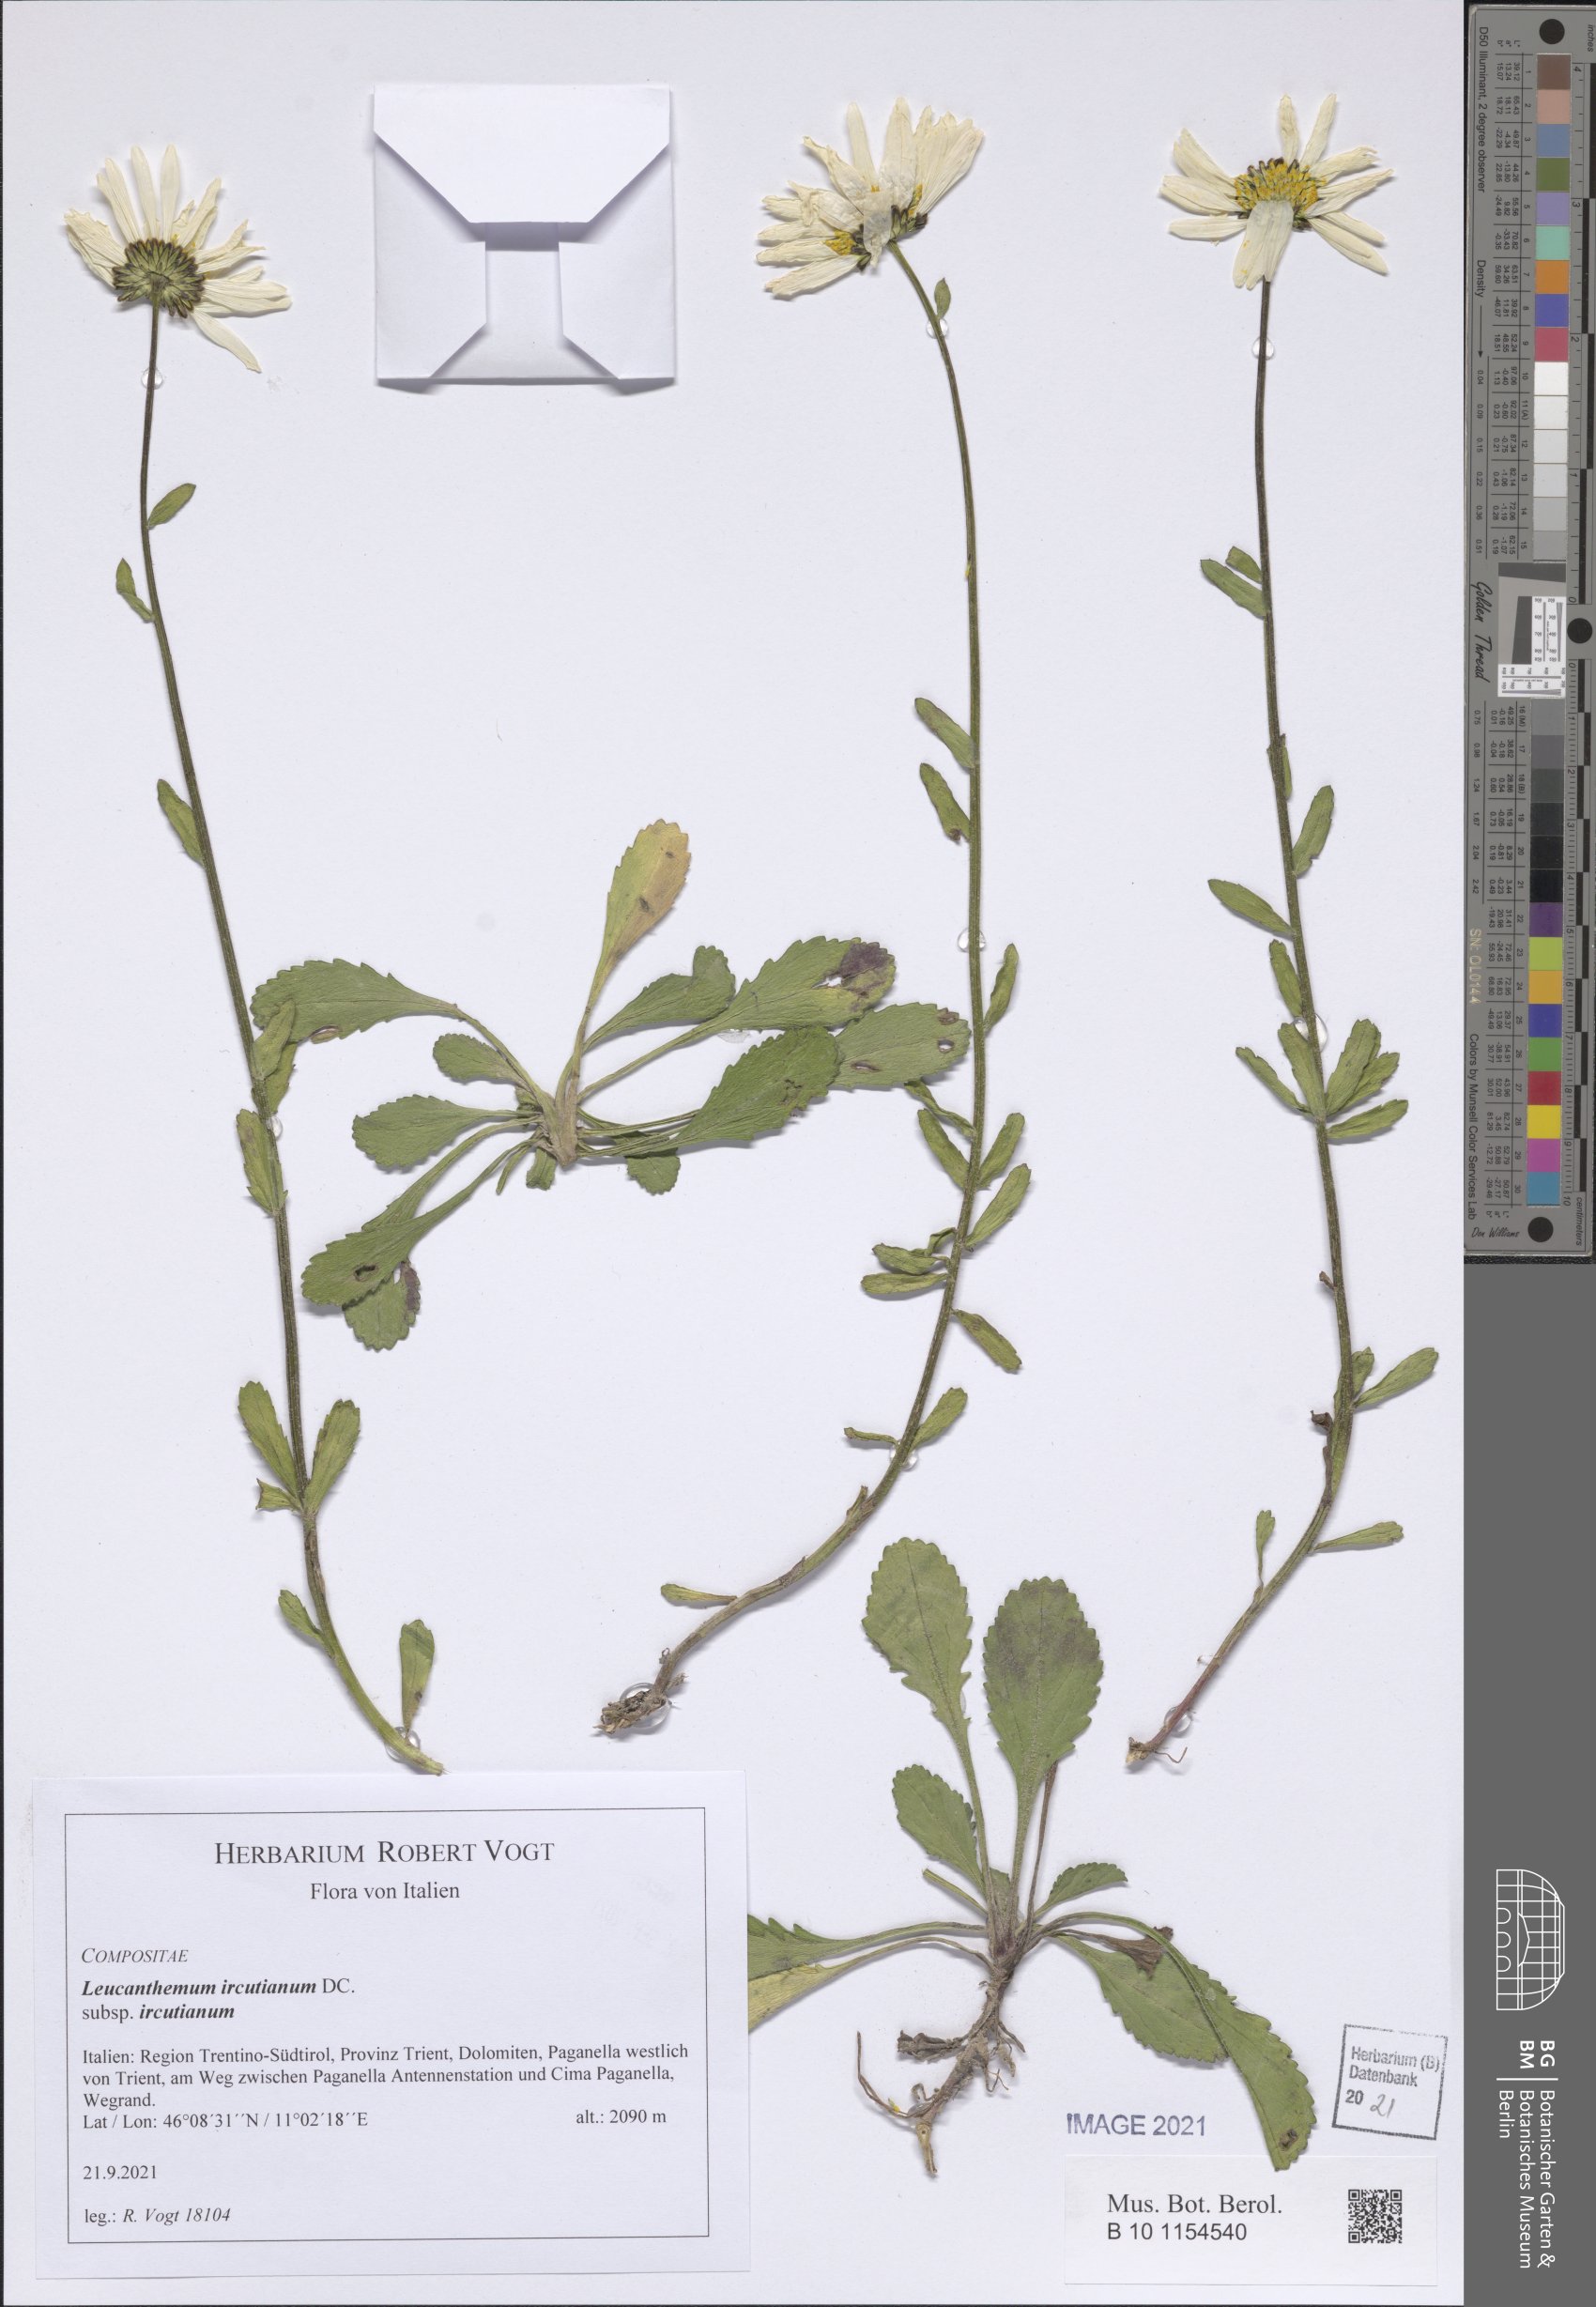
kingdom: Plantae
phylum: Tracheophyta
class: Magnoliopsida
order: Asterales
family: Asteraceae
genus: Leucanthemum
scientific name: Leucanthemum ircutianum
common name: Daisy
